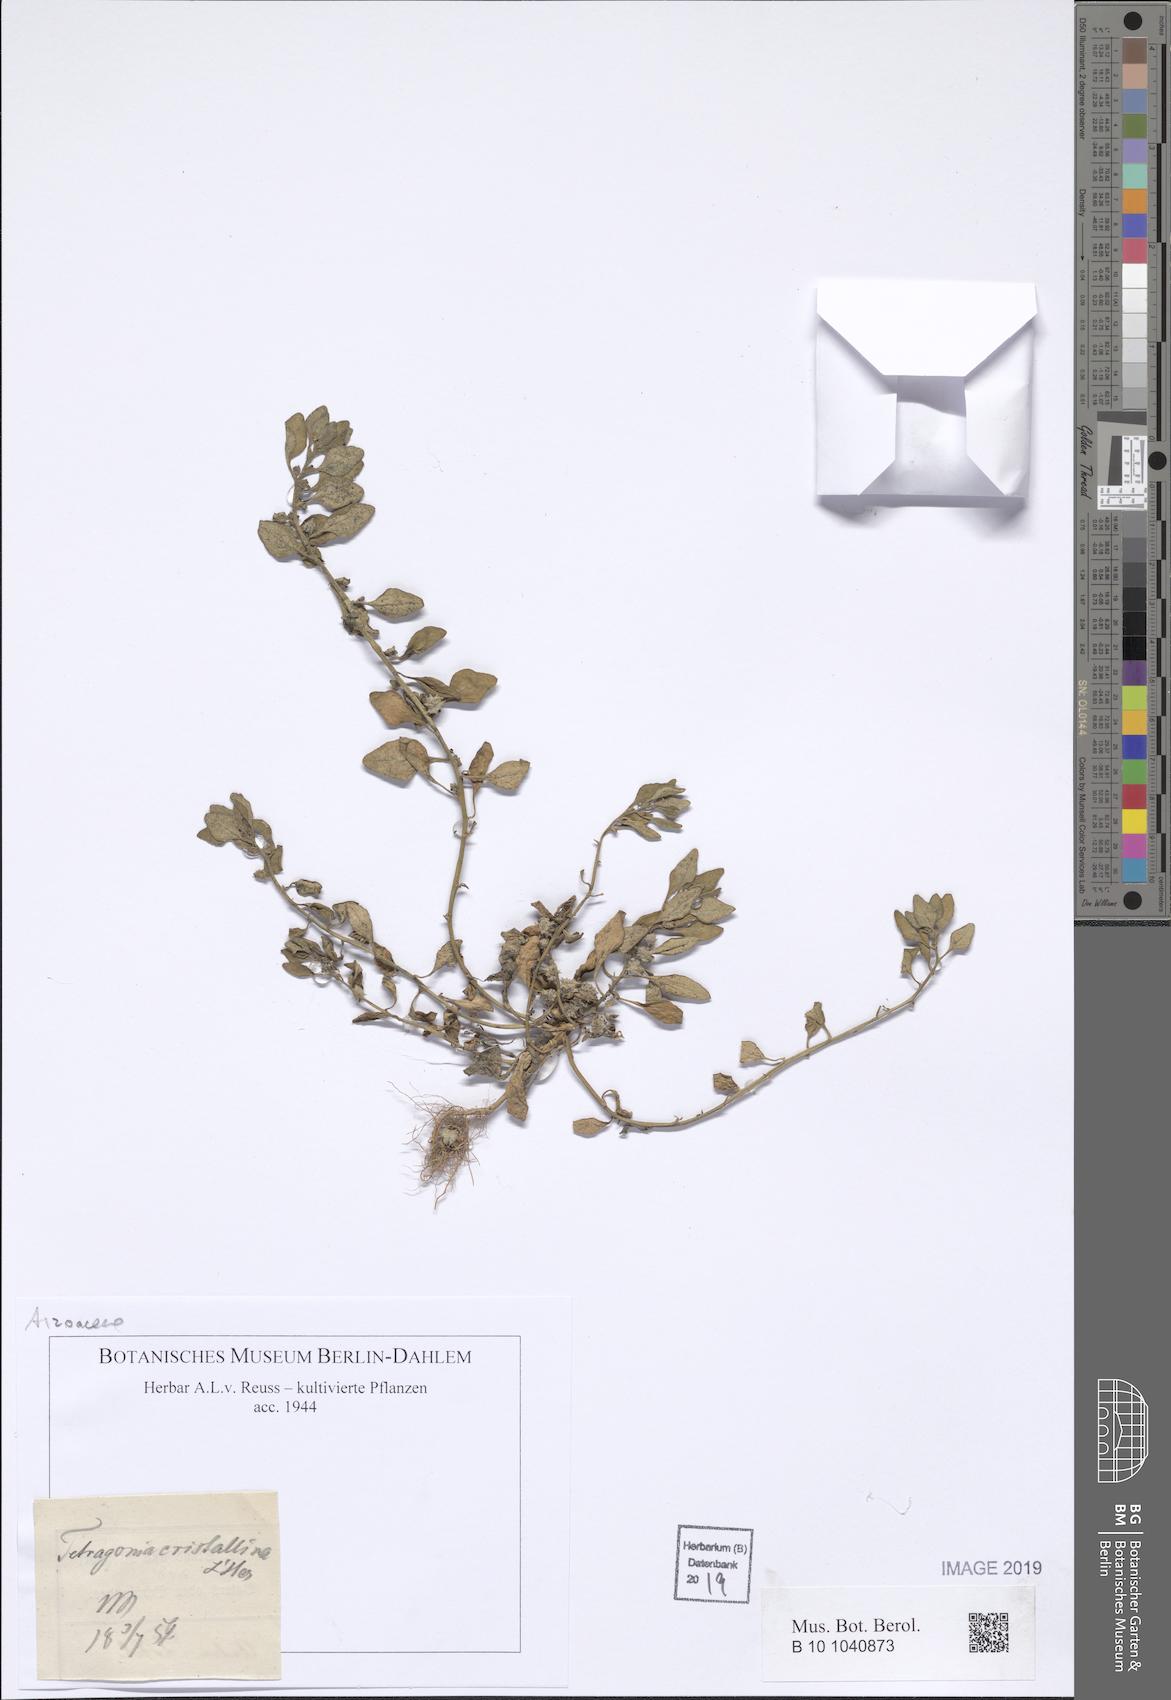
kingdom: Plantae
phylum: Tracheophyta
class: Magnoliopsida
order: Caryophyllales
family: Aizoaceae
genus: Tetragonia
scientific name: Tetragonia crystallina
